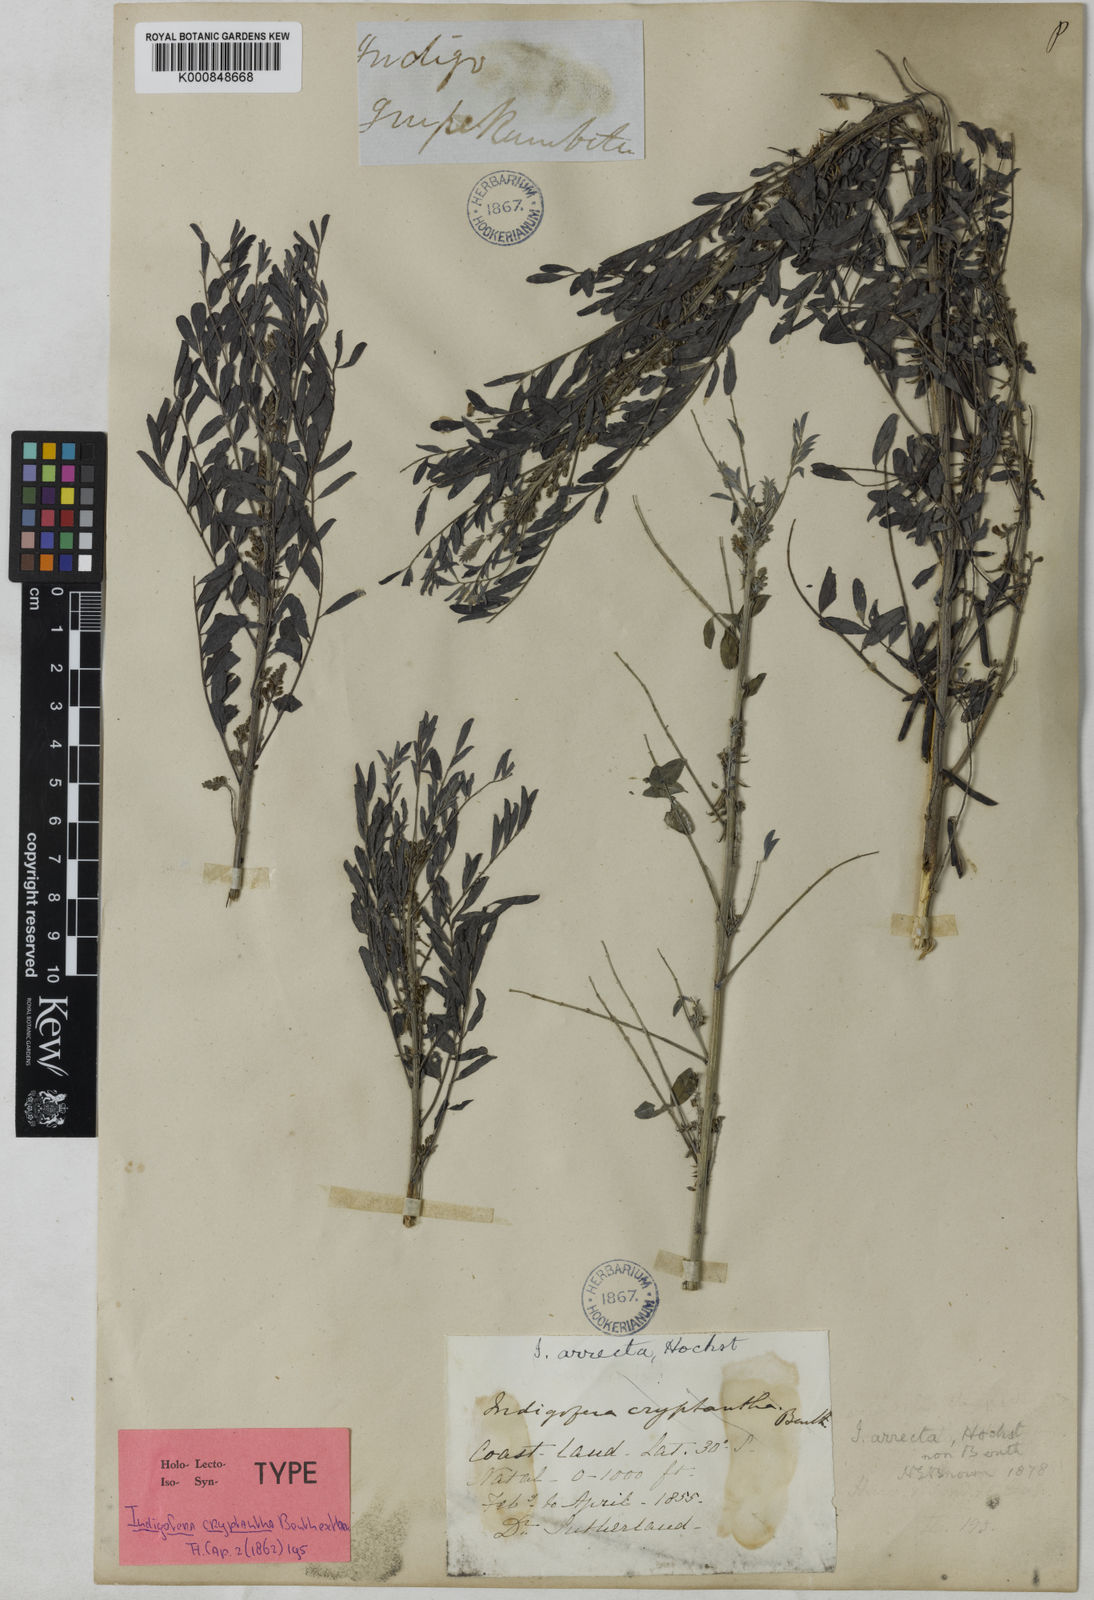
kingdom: Plantae
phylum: Tracheophyta
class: Magnoliopsida
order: Fabales
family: Fabaceae
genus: Indigofera
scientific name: Indigofera cryptantha
